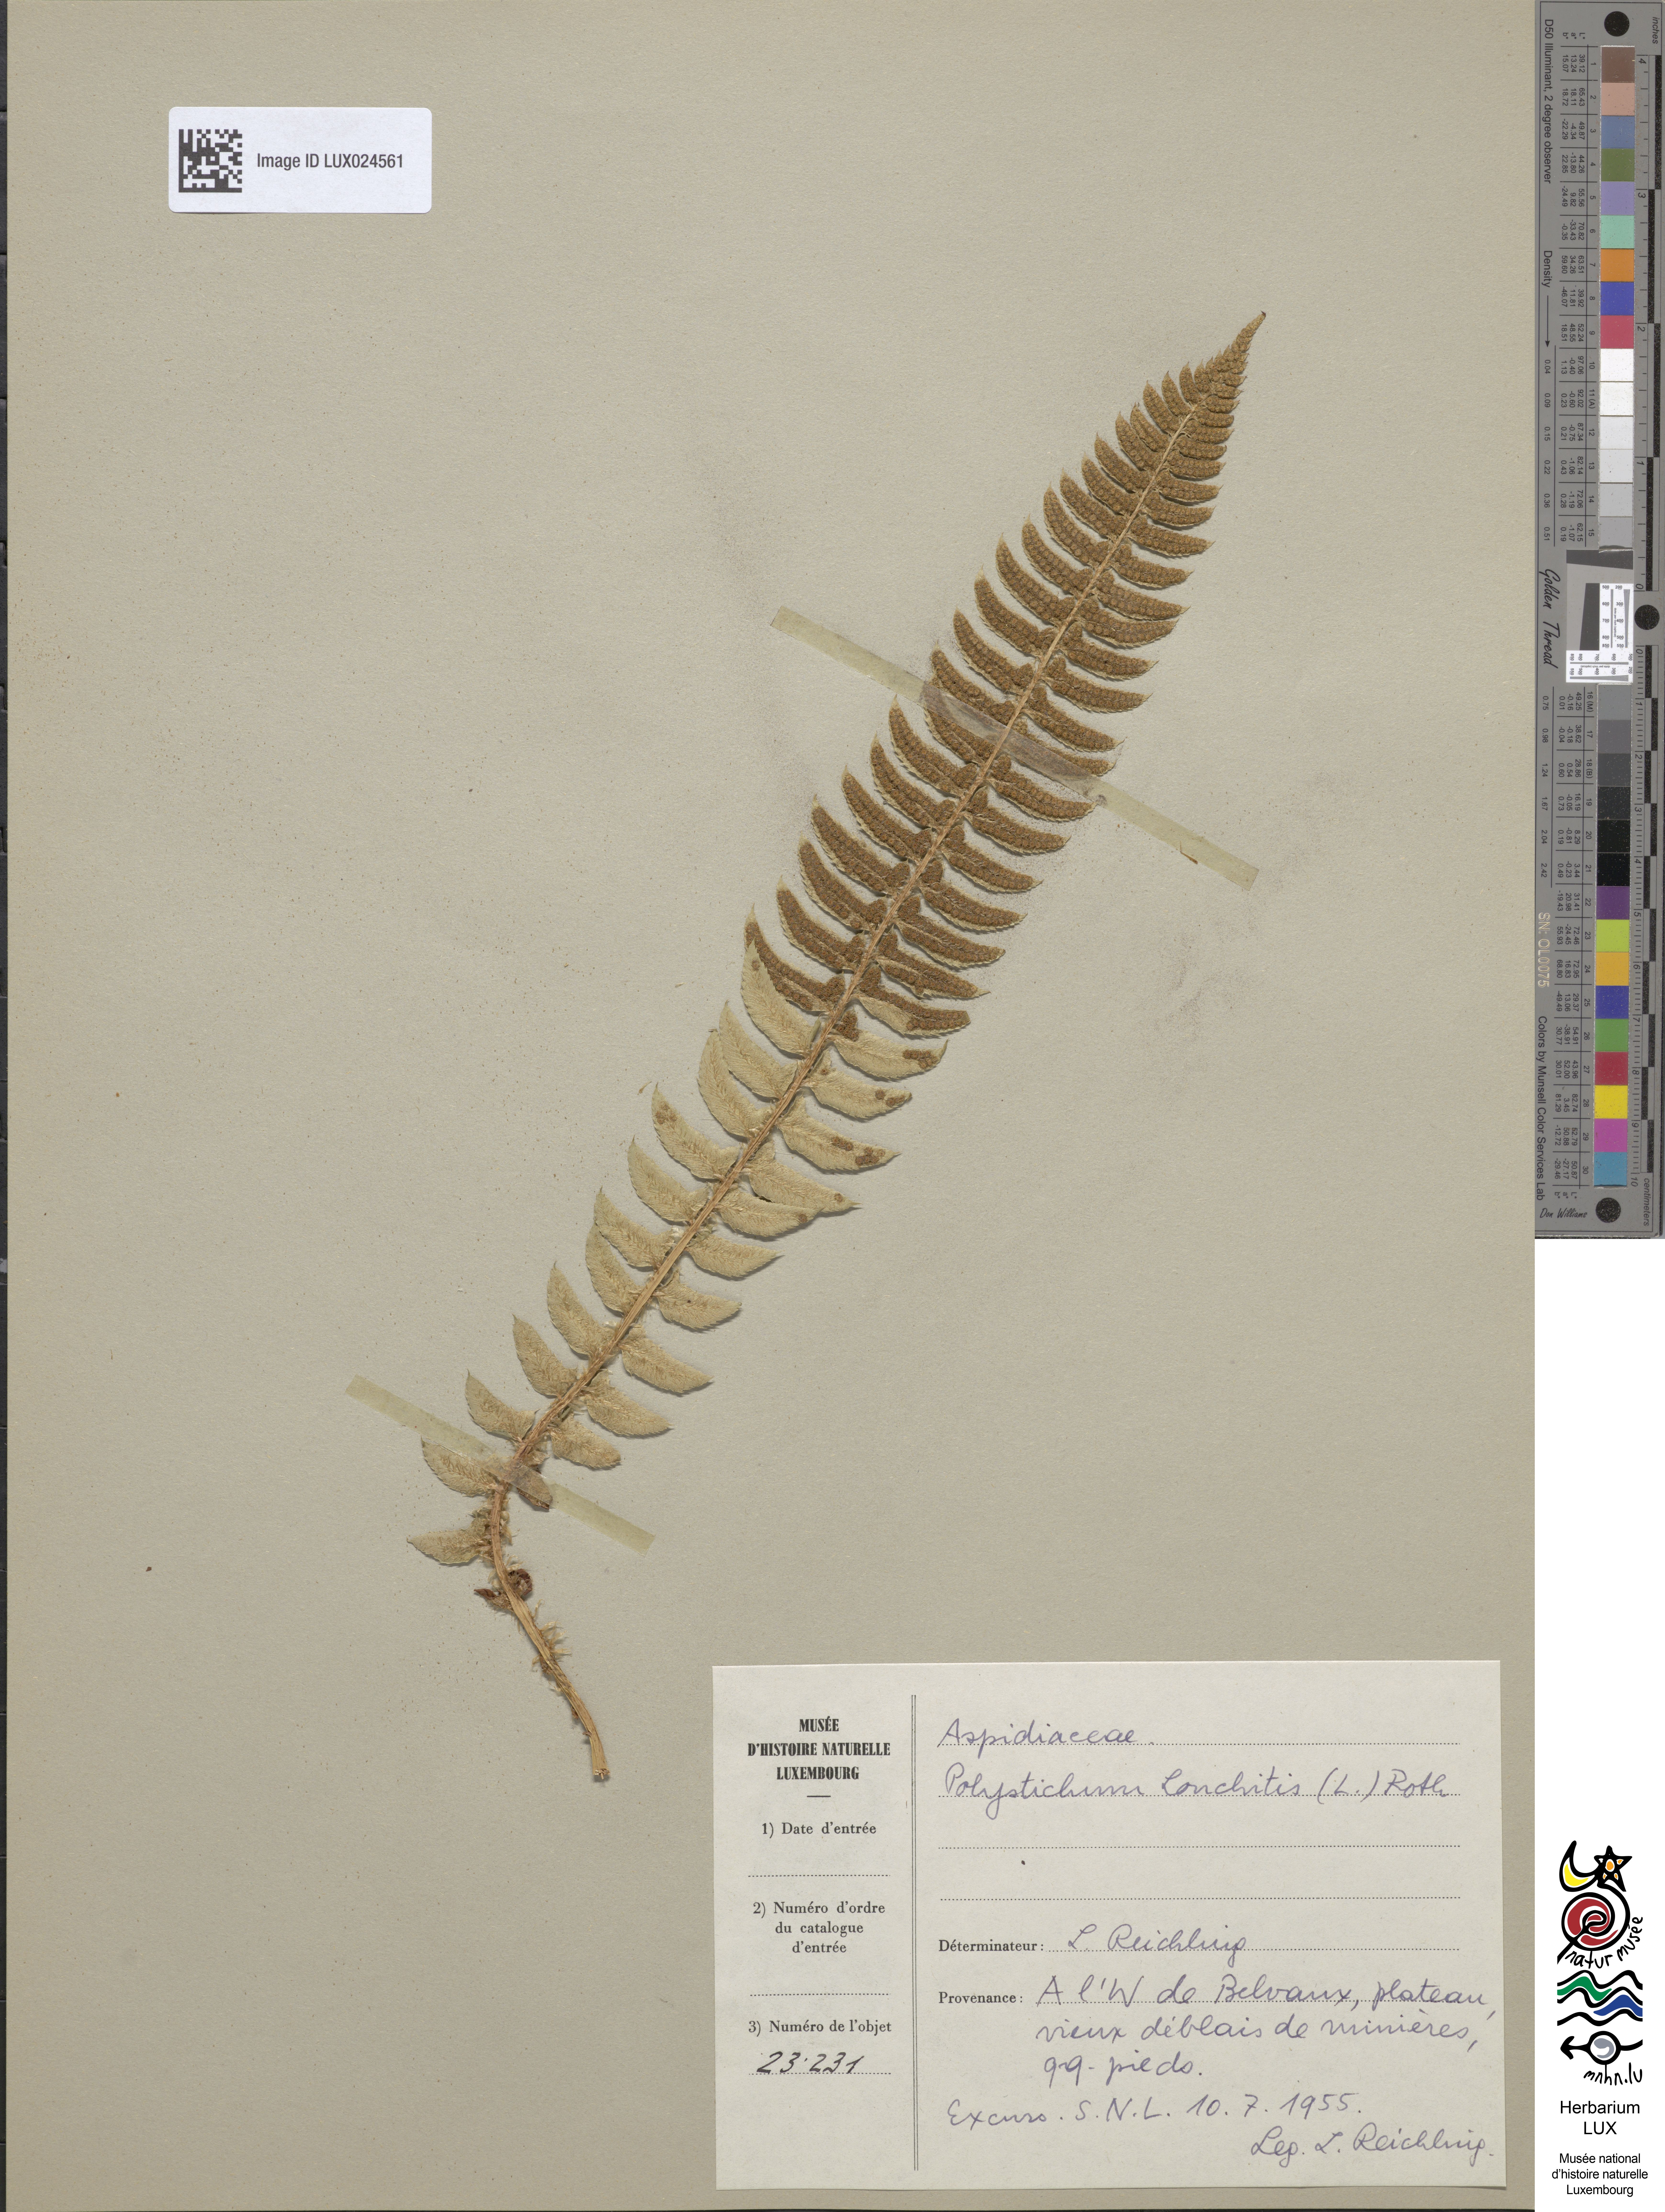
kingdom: Plantae
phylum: Tracheophyta
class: Polypodiopsida
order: Polypodiales
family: Dryopteridaceae
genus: Polystichum
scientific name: Polystichum lonchitis
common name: Holly fern
